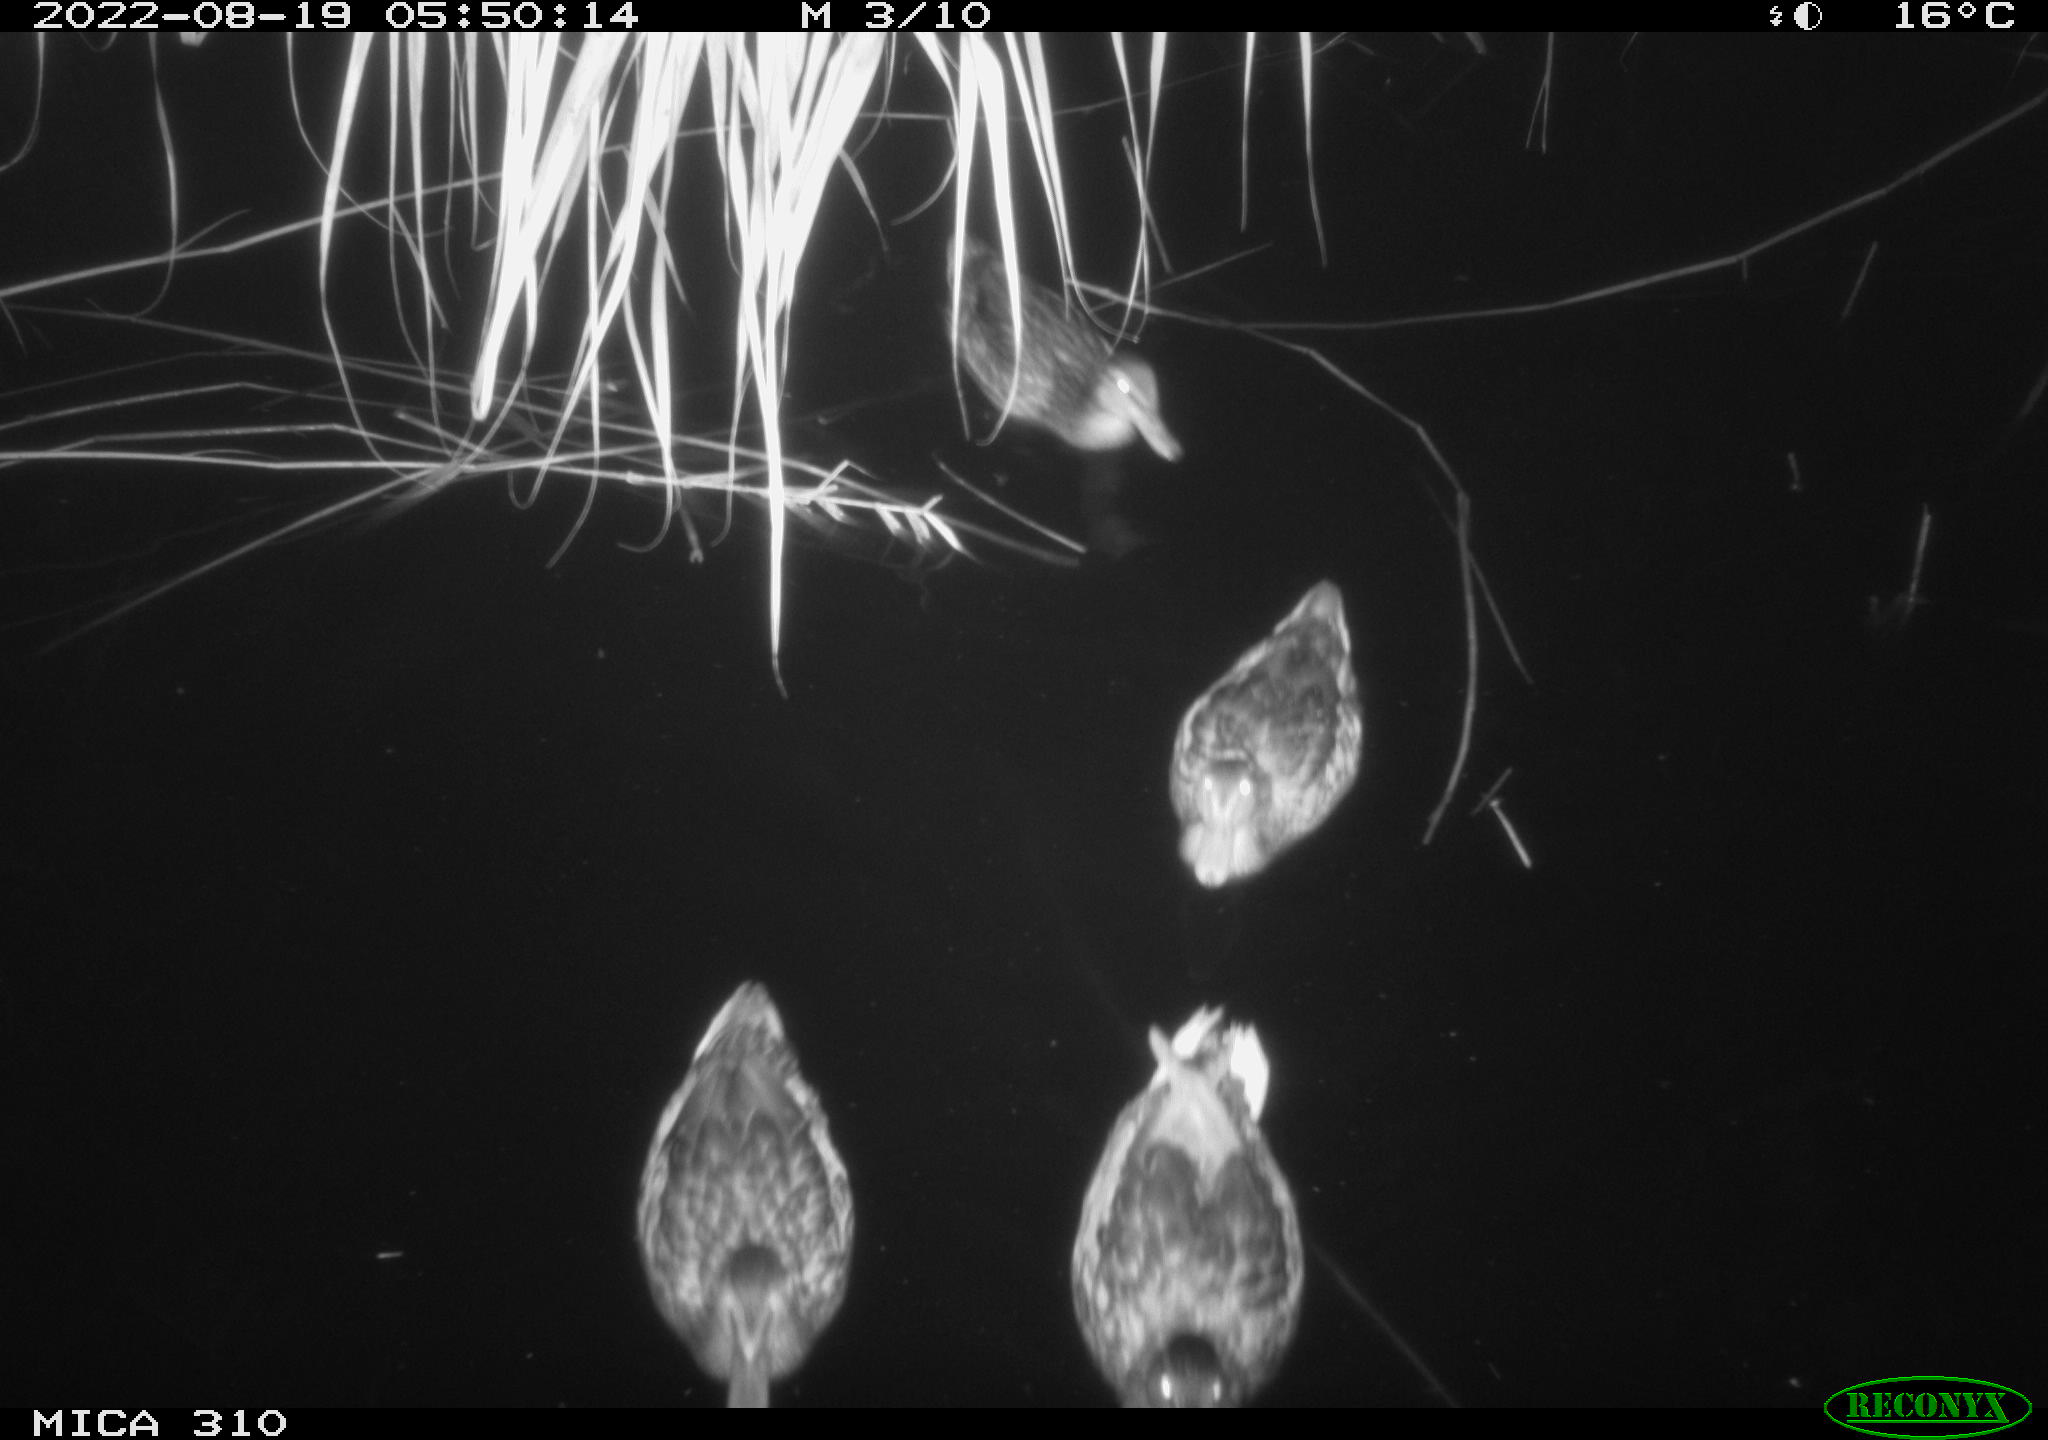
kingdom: Animalia
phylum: Chordata
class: Aves
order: Anseriformes
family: Anatidae
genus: Anas
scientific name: Anas platyrhynchos
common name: Mallard
